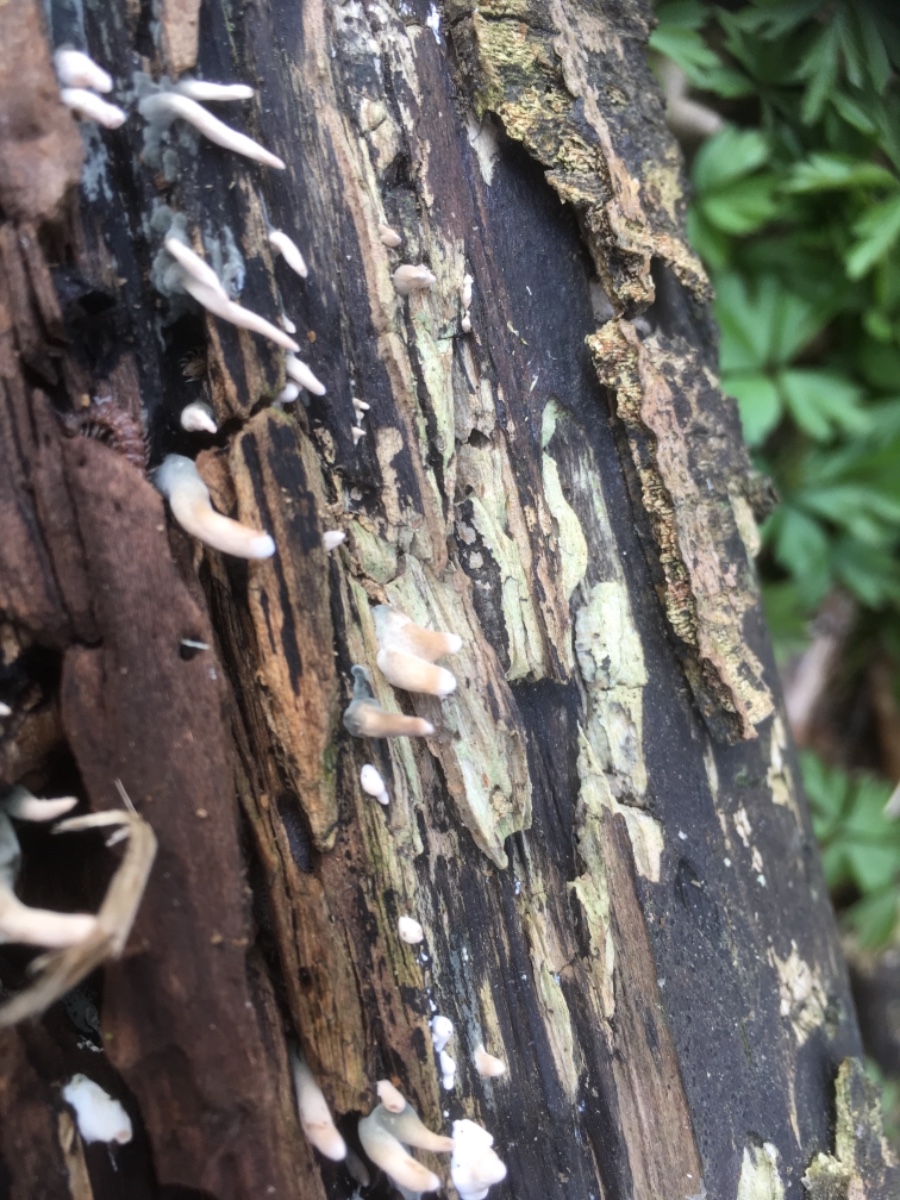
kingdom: Fungi
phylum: Ascomycota
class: Sordariomycetes
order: Xylariales
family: Xylariaceae
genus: Xylaria
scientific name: Xylaria hypoxylon
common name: grenet stødsvamp
